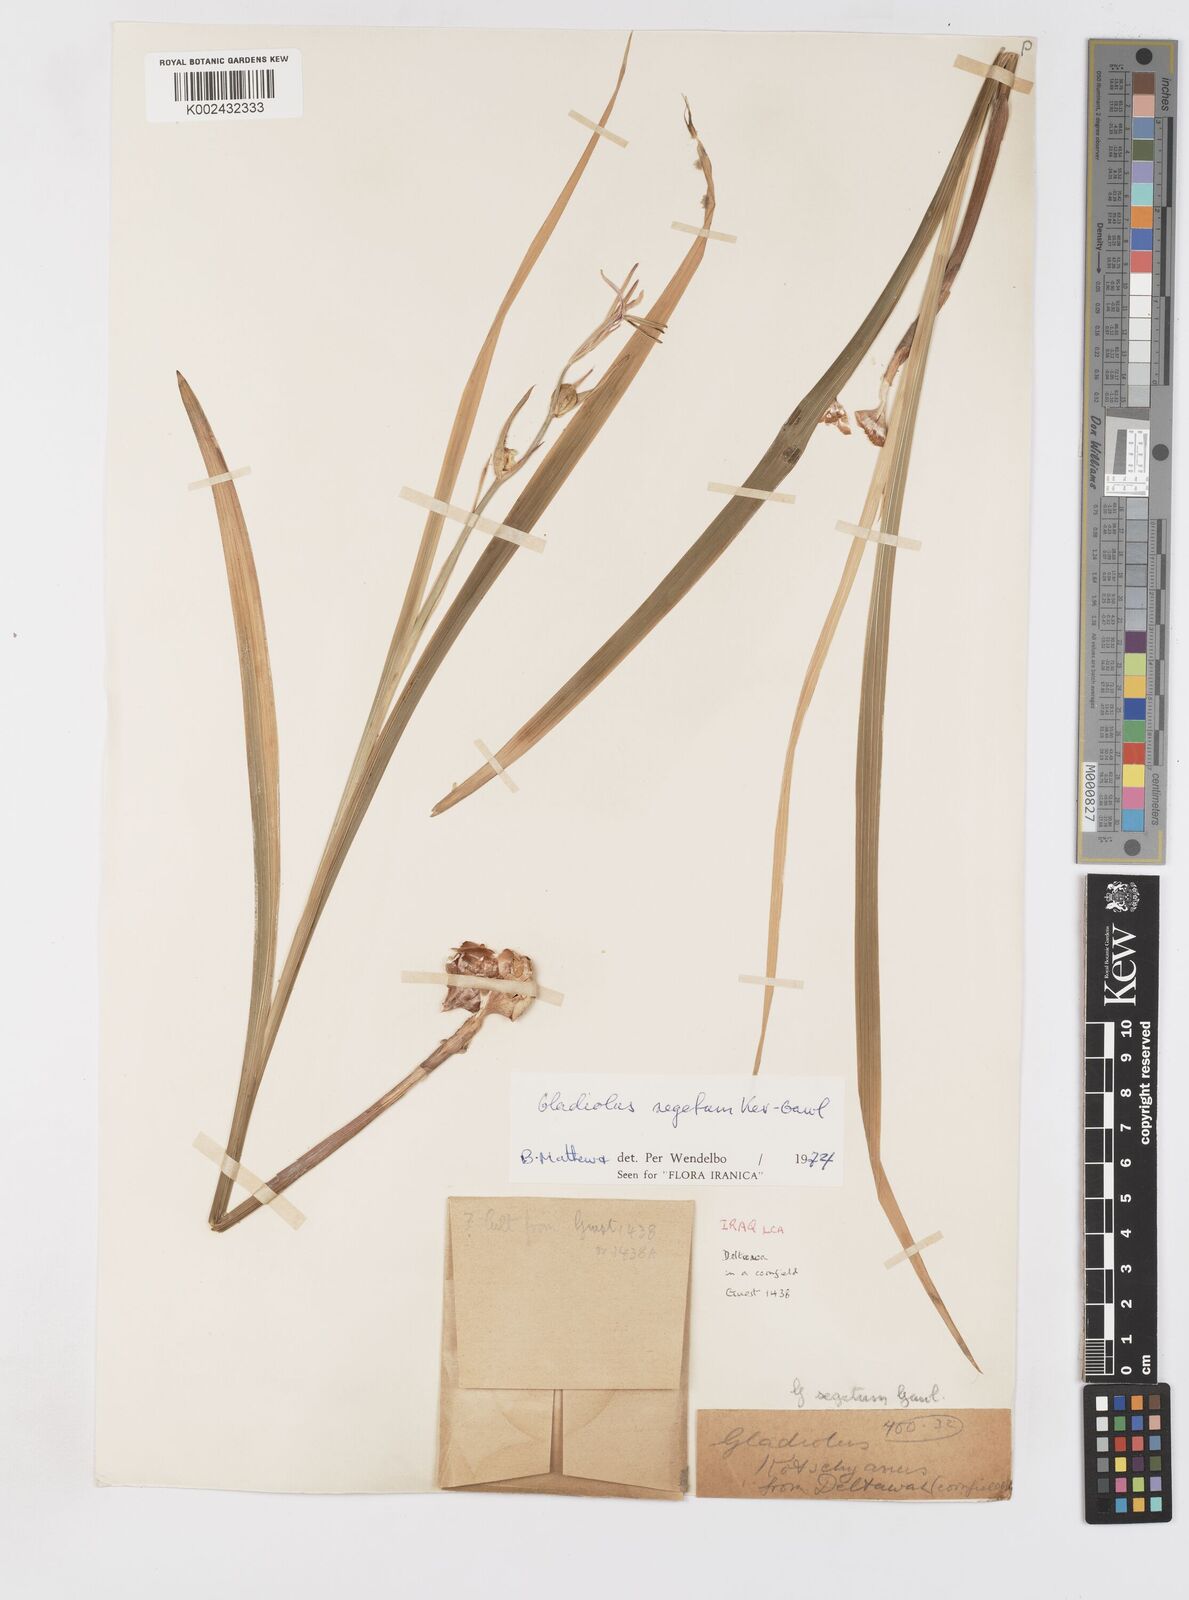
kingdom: Plantae
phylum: Tracheophyta
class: Liliopsida
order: Asparagales
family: Iridaceae
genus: Gladiolus
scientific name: Gladiolus italicus
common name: Field gladiolus
